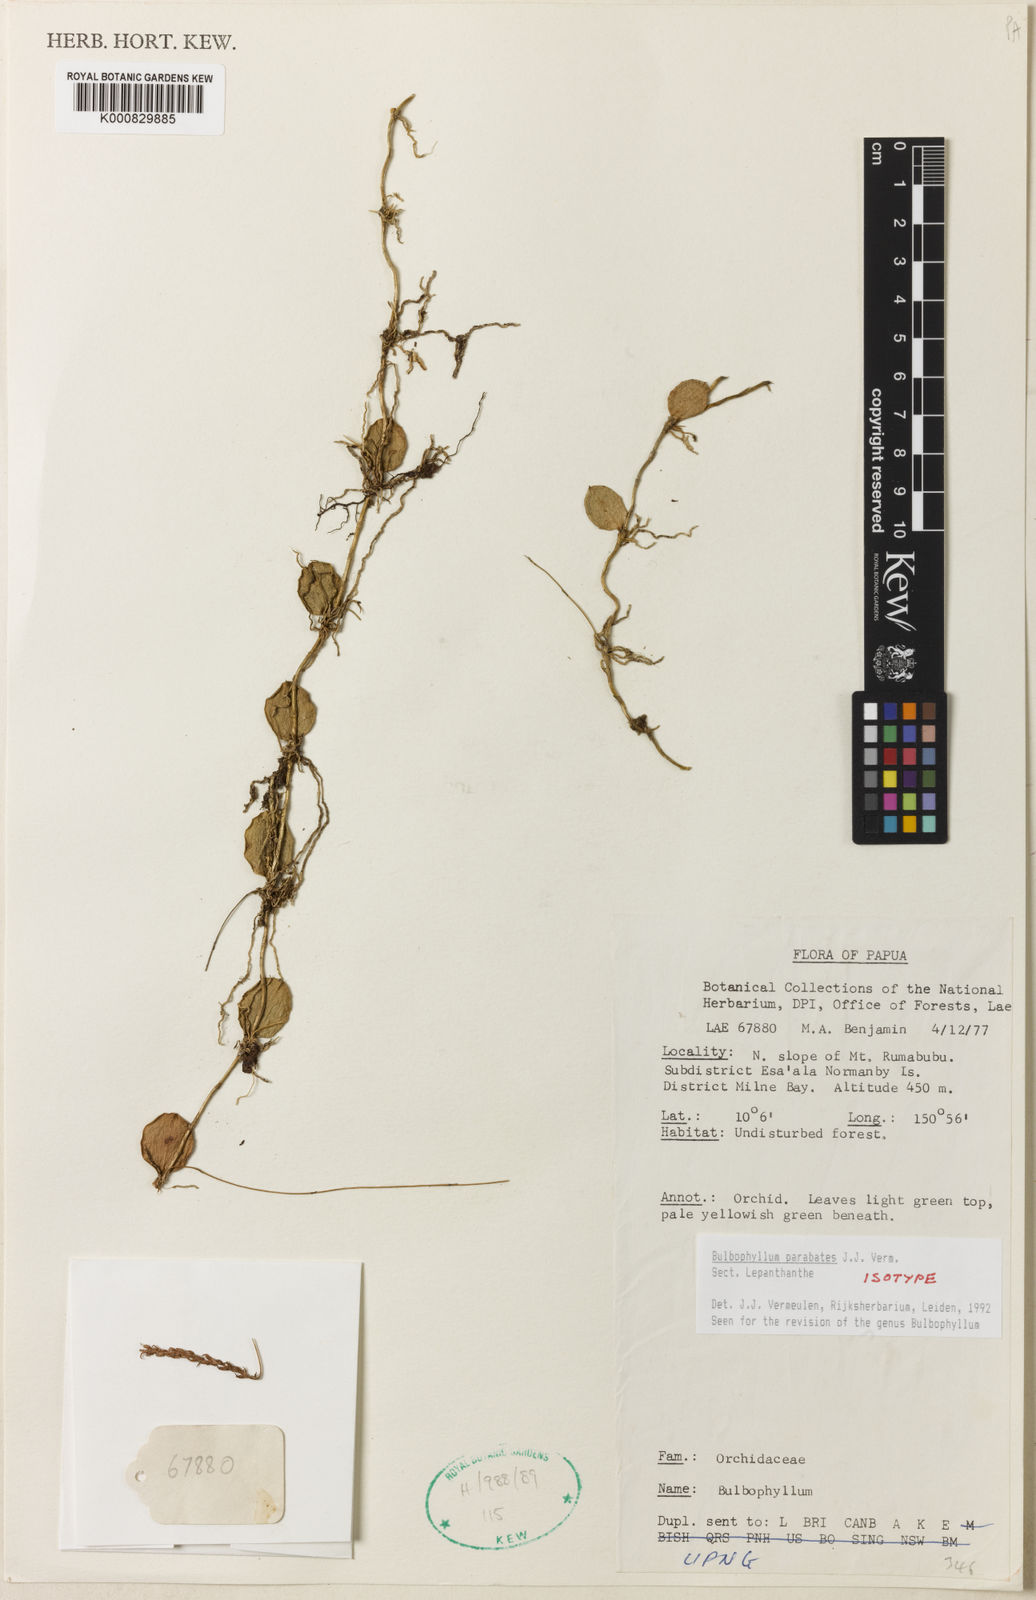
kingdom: Plantae
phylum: Tracheophyta
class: Liliopsida
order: Asparagales
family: Orchidaceae
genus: Bulbophyllum
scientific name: Bulbophyllum
